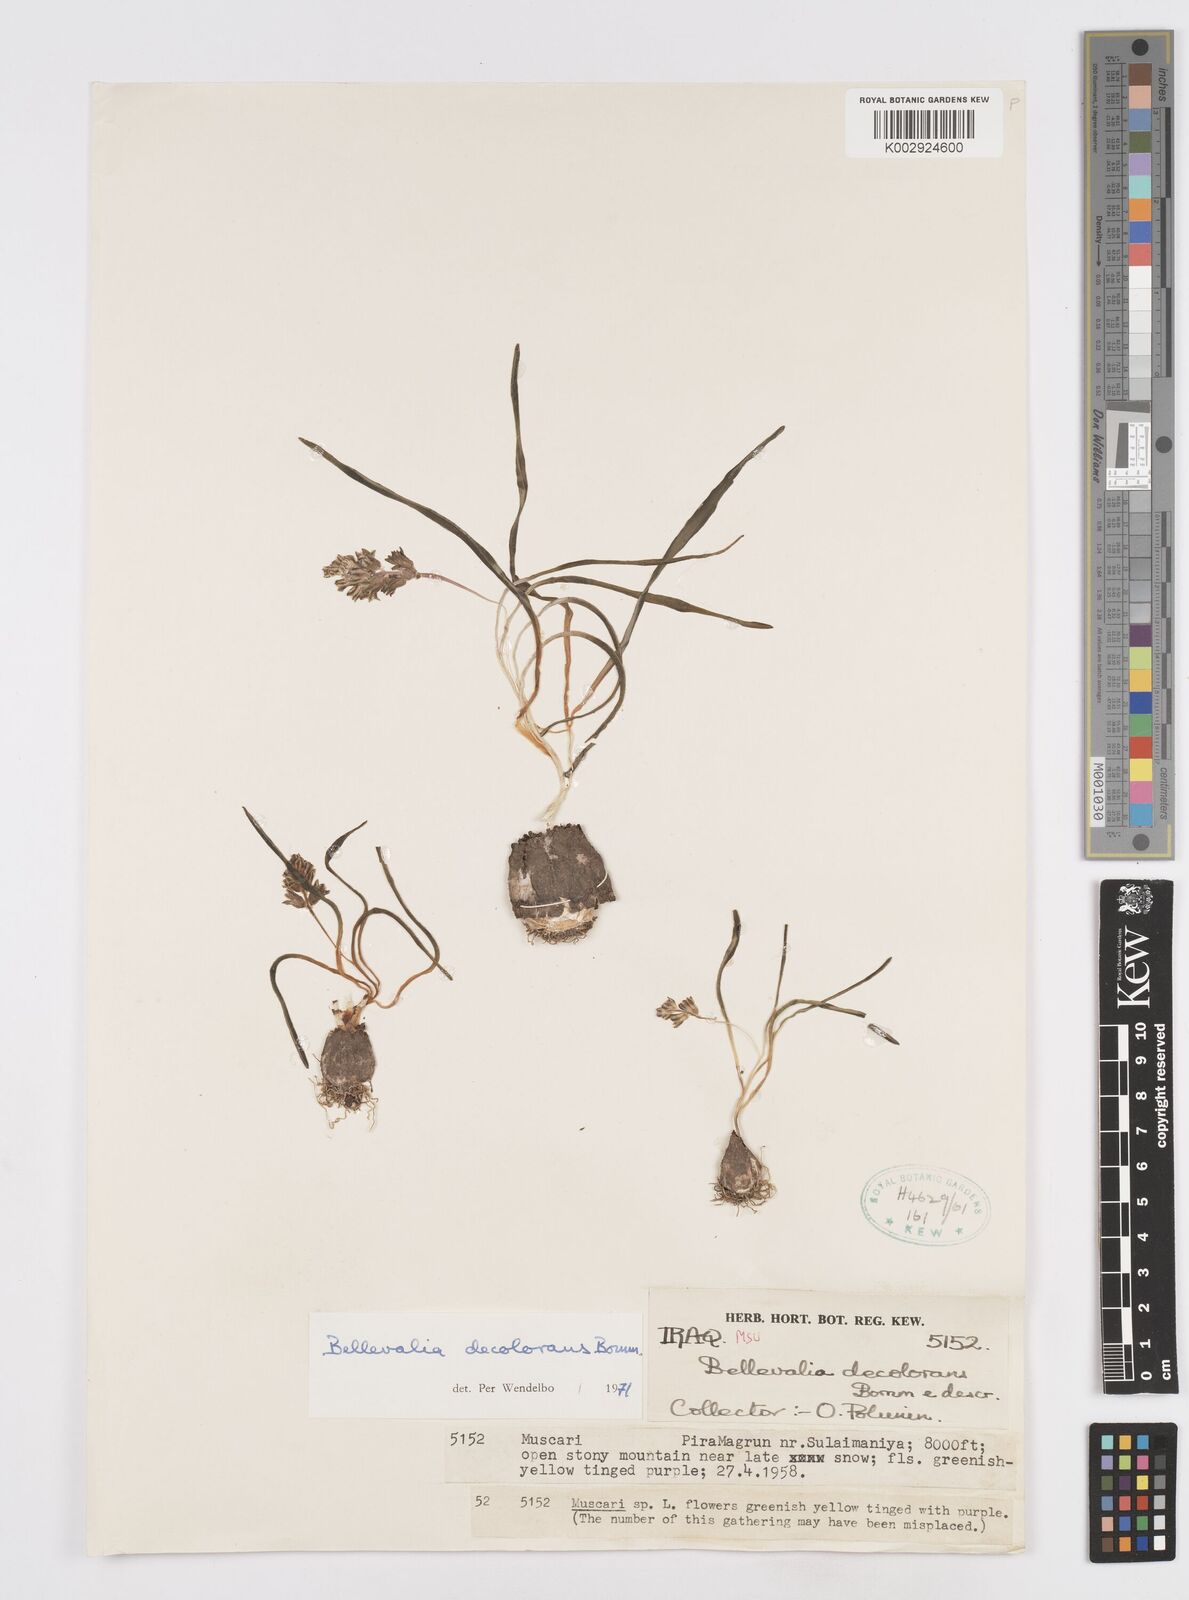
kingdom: Plantae
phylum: Tracheophyta
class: Liliopsida
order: Asparagales
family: Asparagaceae
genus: Bellevalia
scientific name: Bellevalia decolorans
